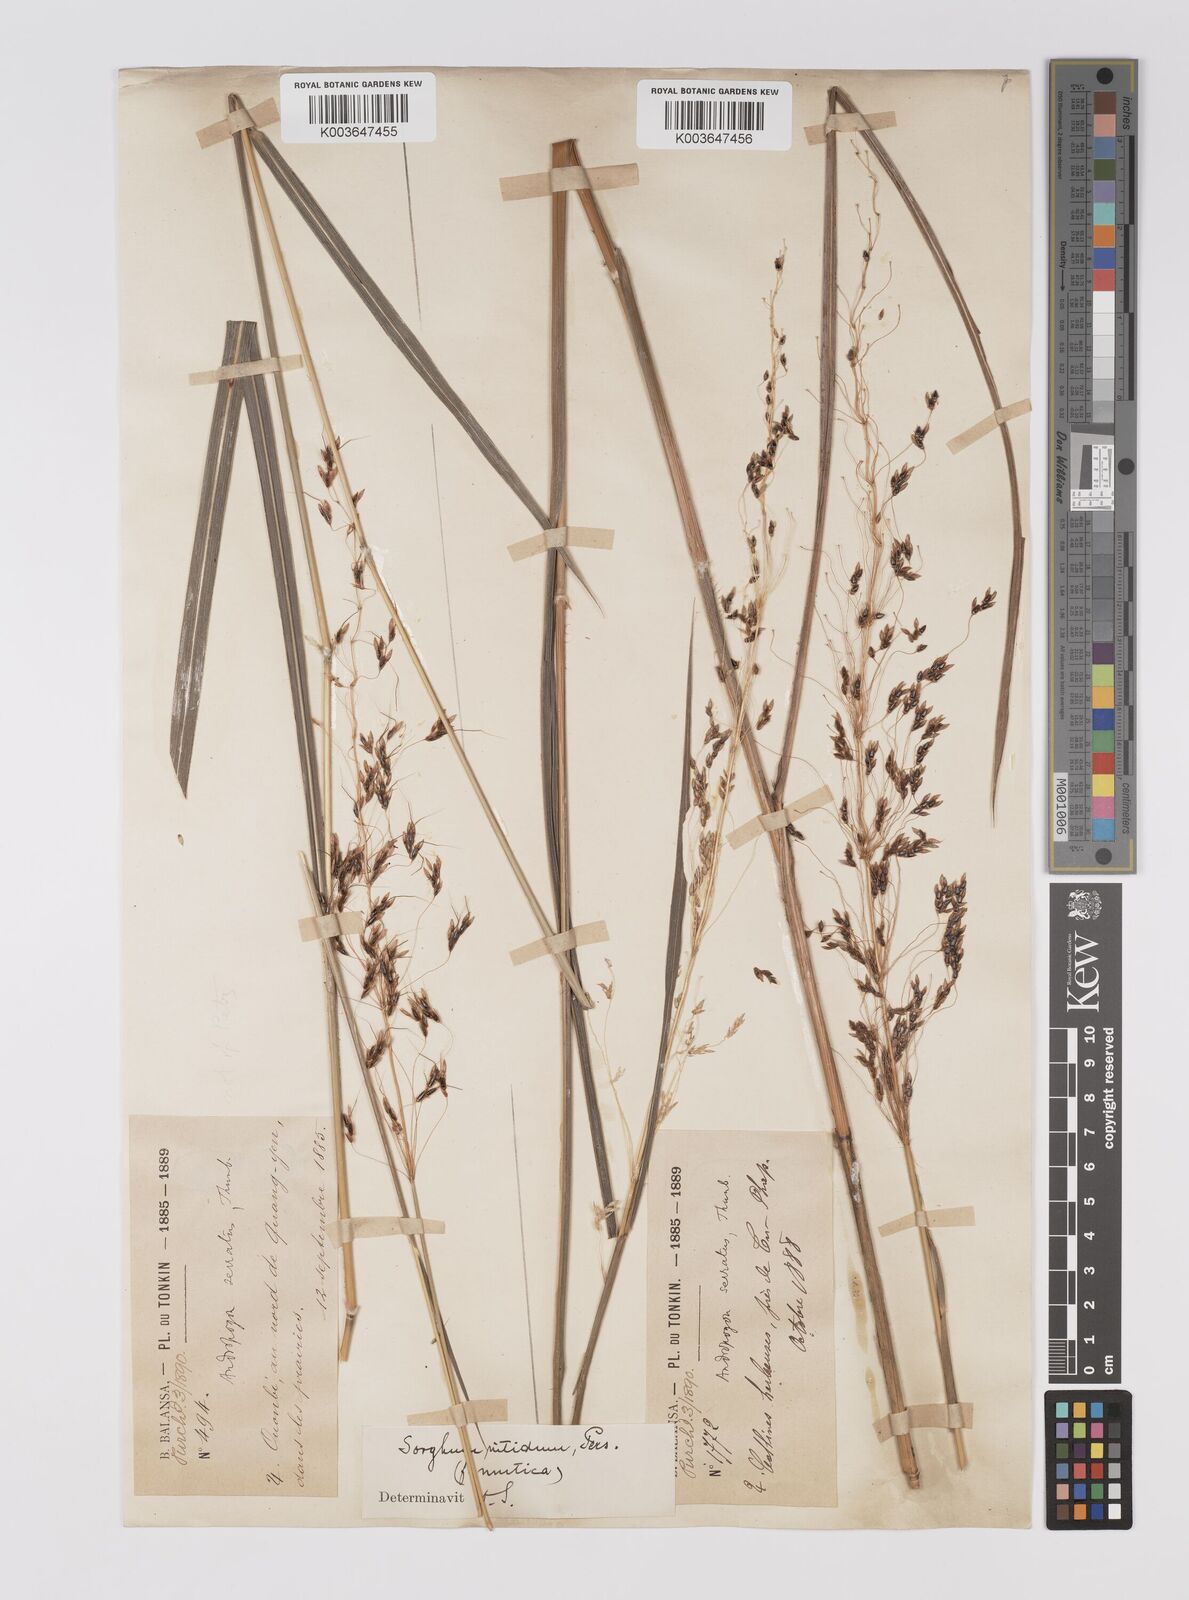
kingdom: Plantae
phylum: Tracheophyta
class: Liliopsida
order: Poales
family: Poaceae
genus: Sorghum
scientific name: Sorghum nitidum
